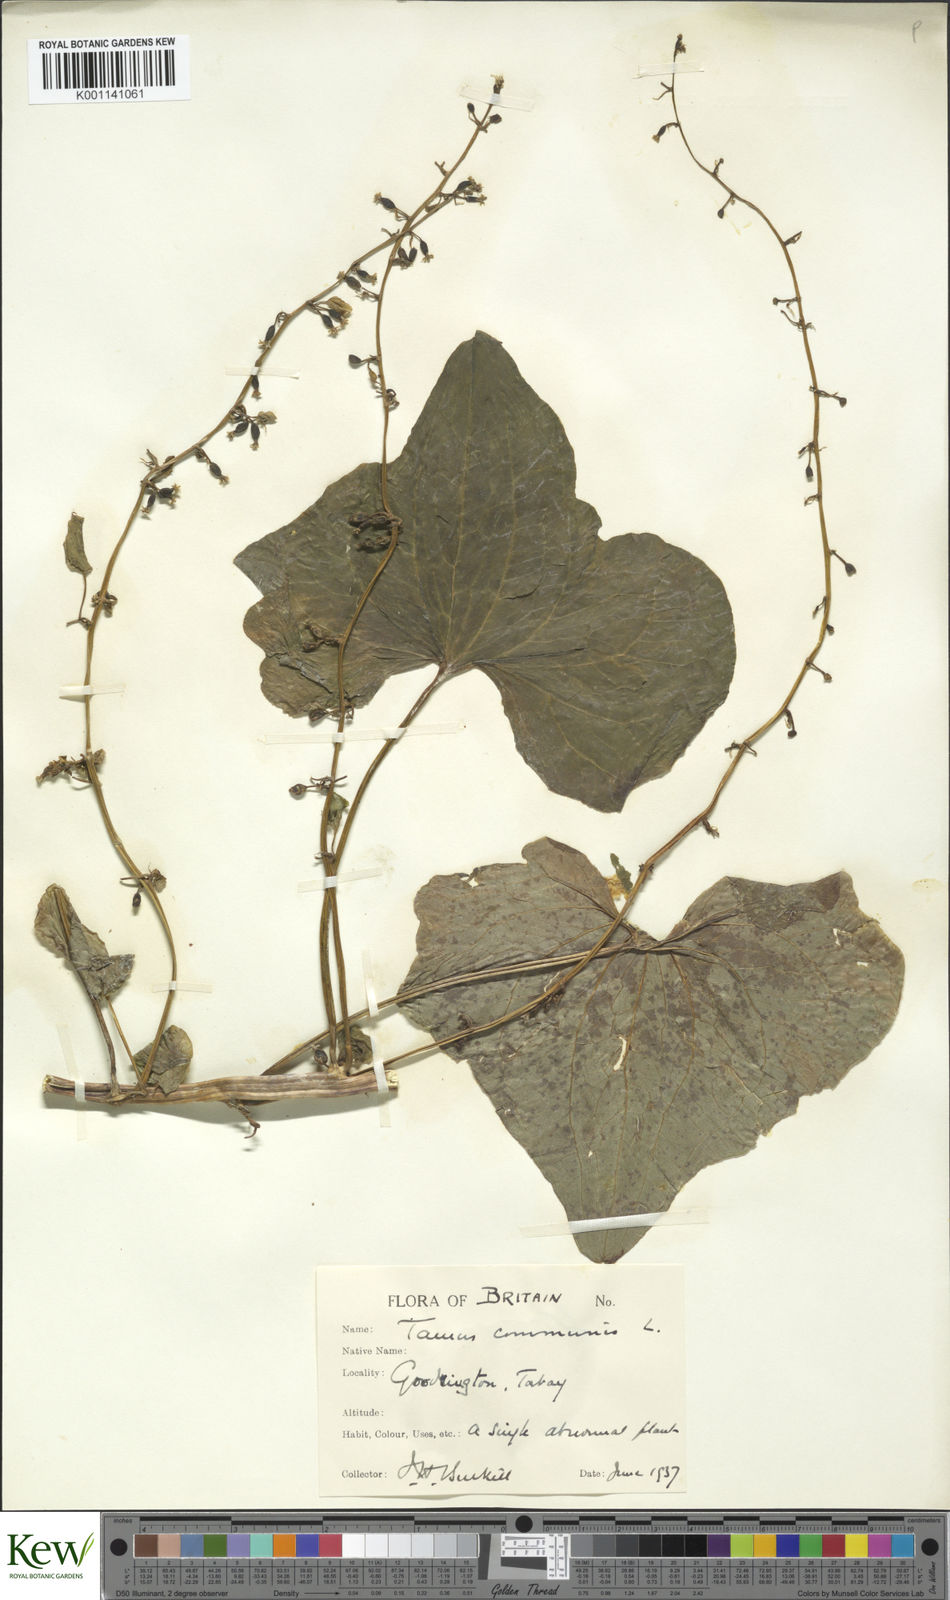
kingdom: Plantae
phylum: Tracheophyta
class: Liliopsida
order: Dioscoreales
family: Dioscoreaceae
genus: Dioscorea
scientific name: Dioscorea communis
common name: Black-bindweed
